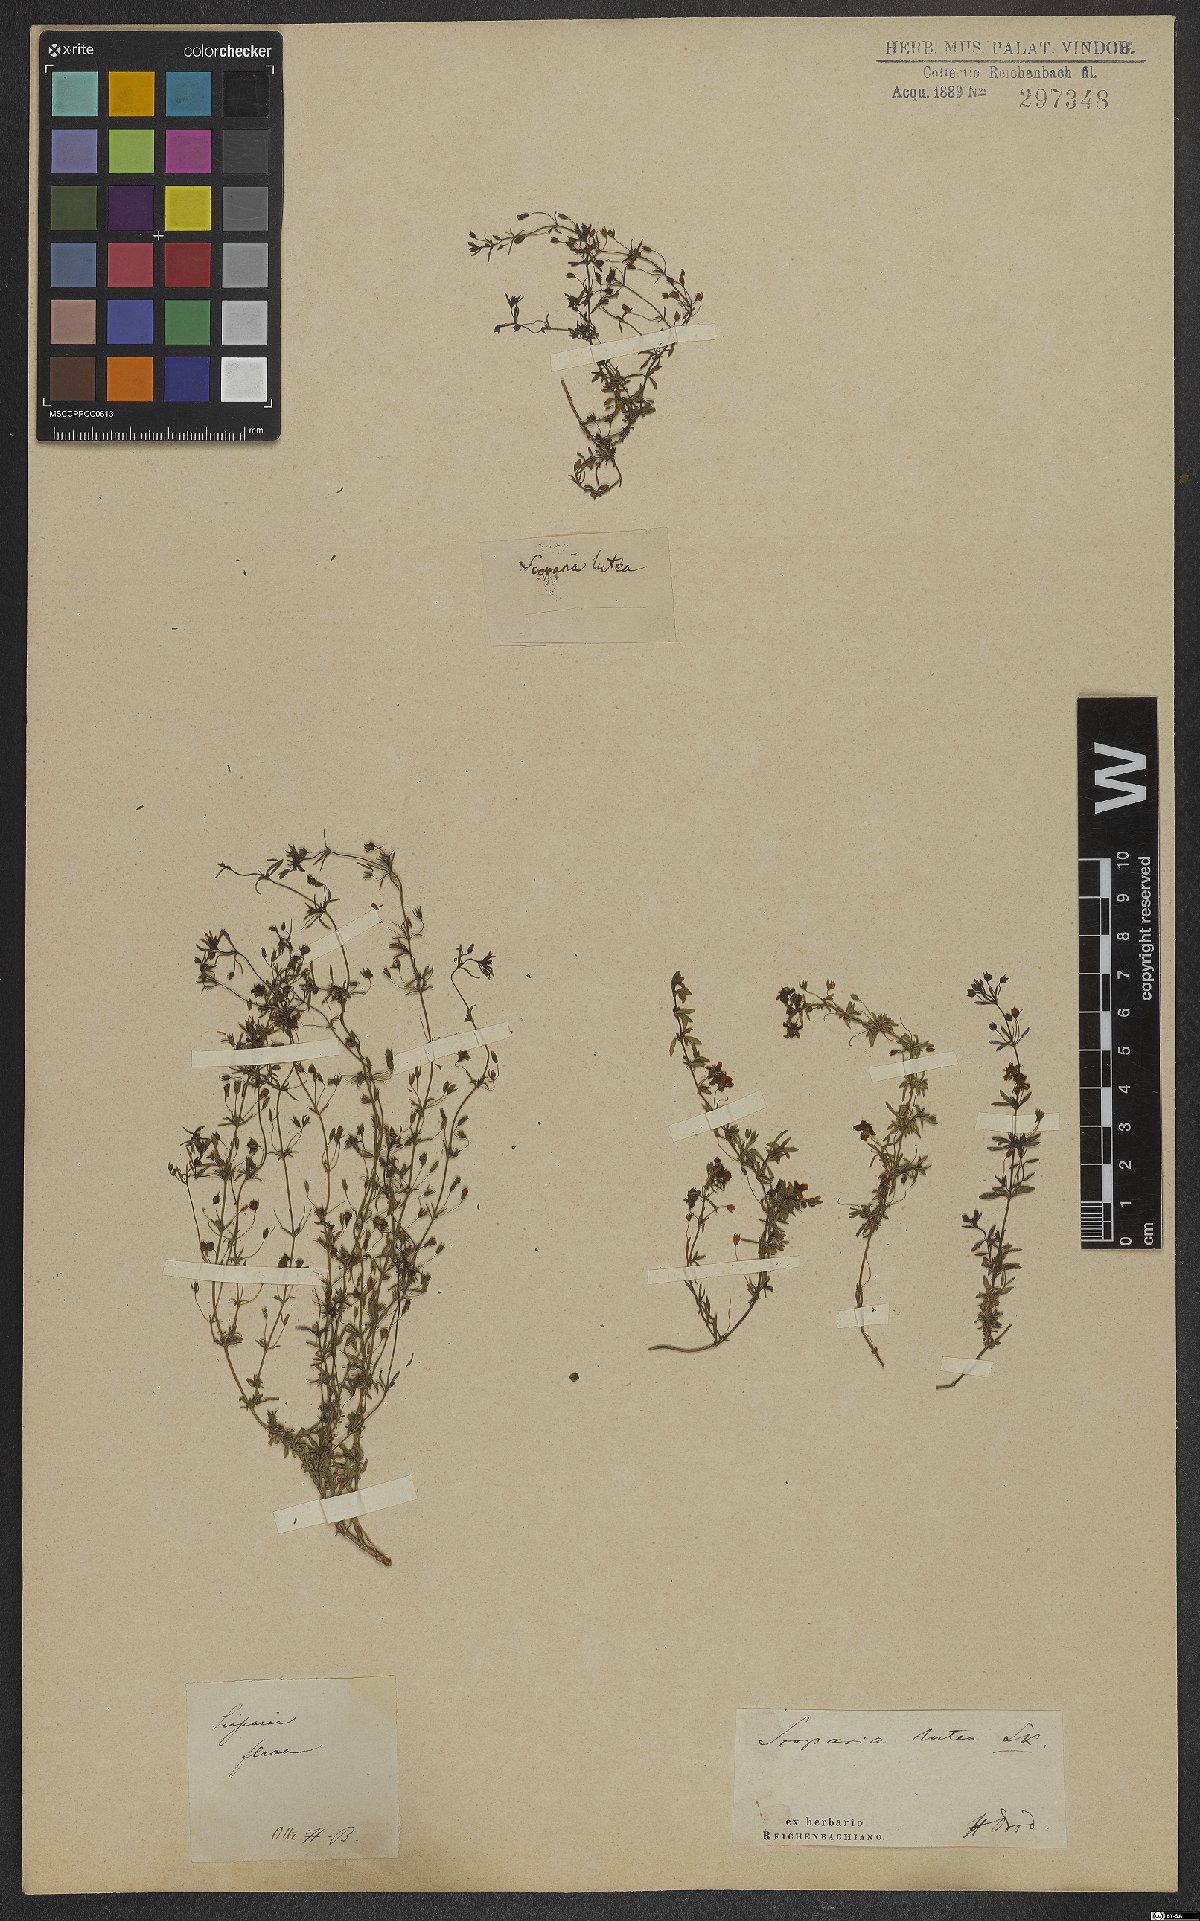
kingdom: Plantae
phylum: Tracheophyta
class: Magnoliopsida
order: Lamiales
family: Scrophulariaceae
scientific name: Scrophulariaceae
